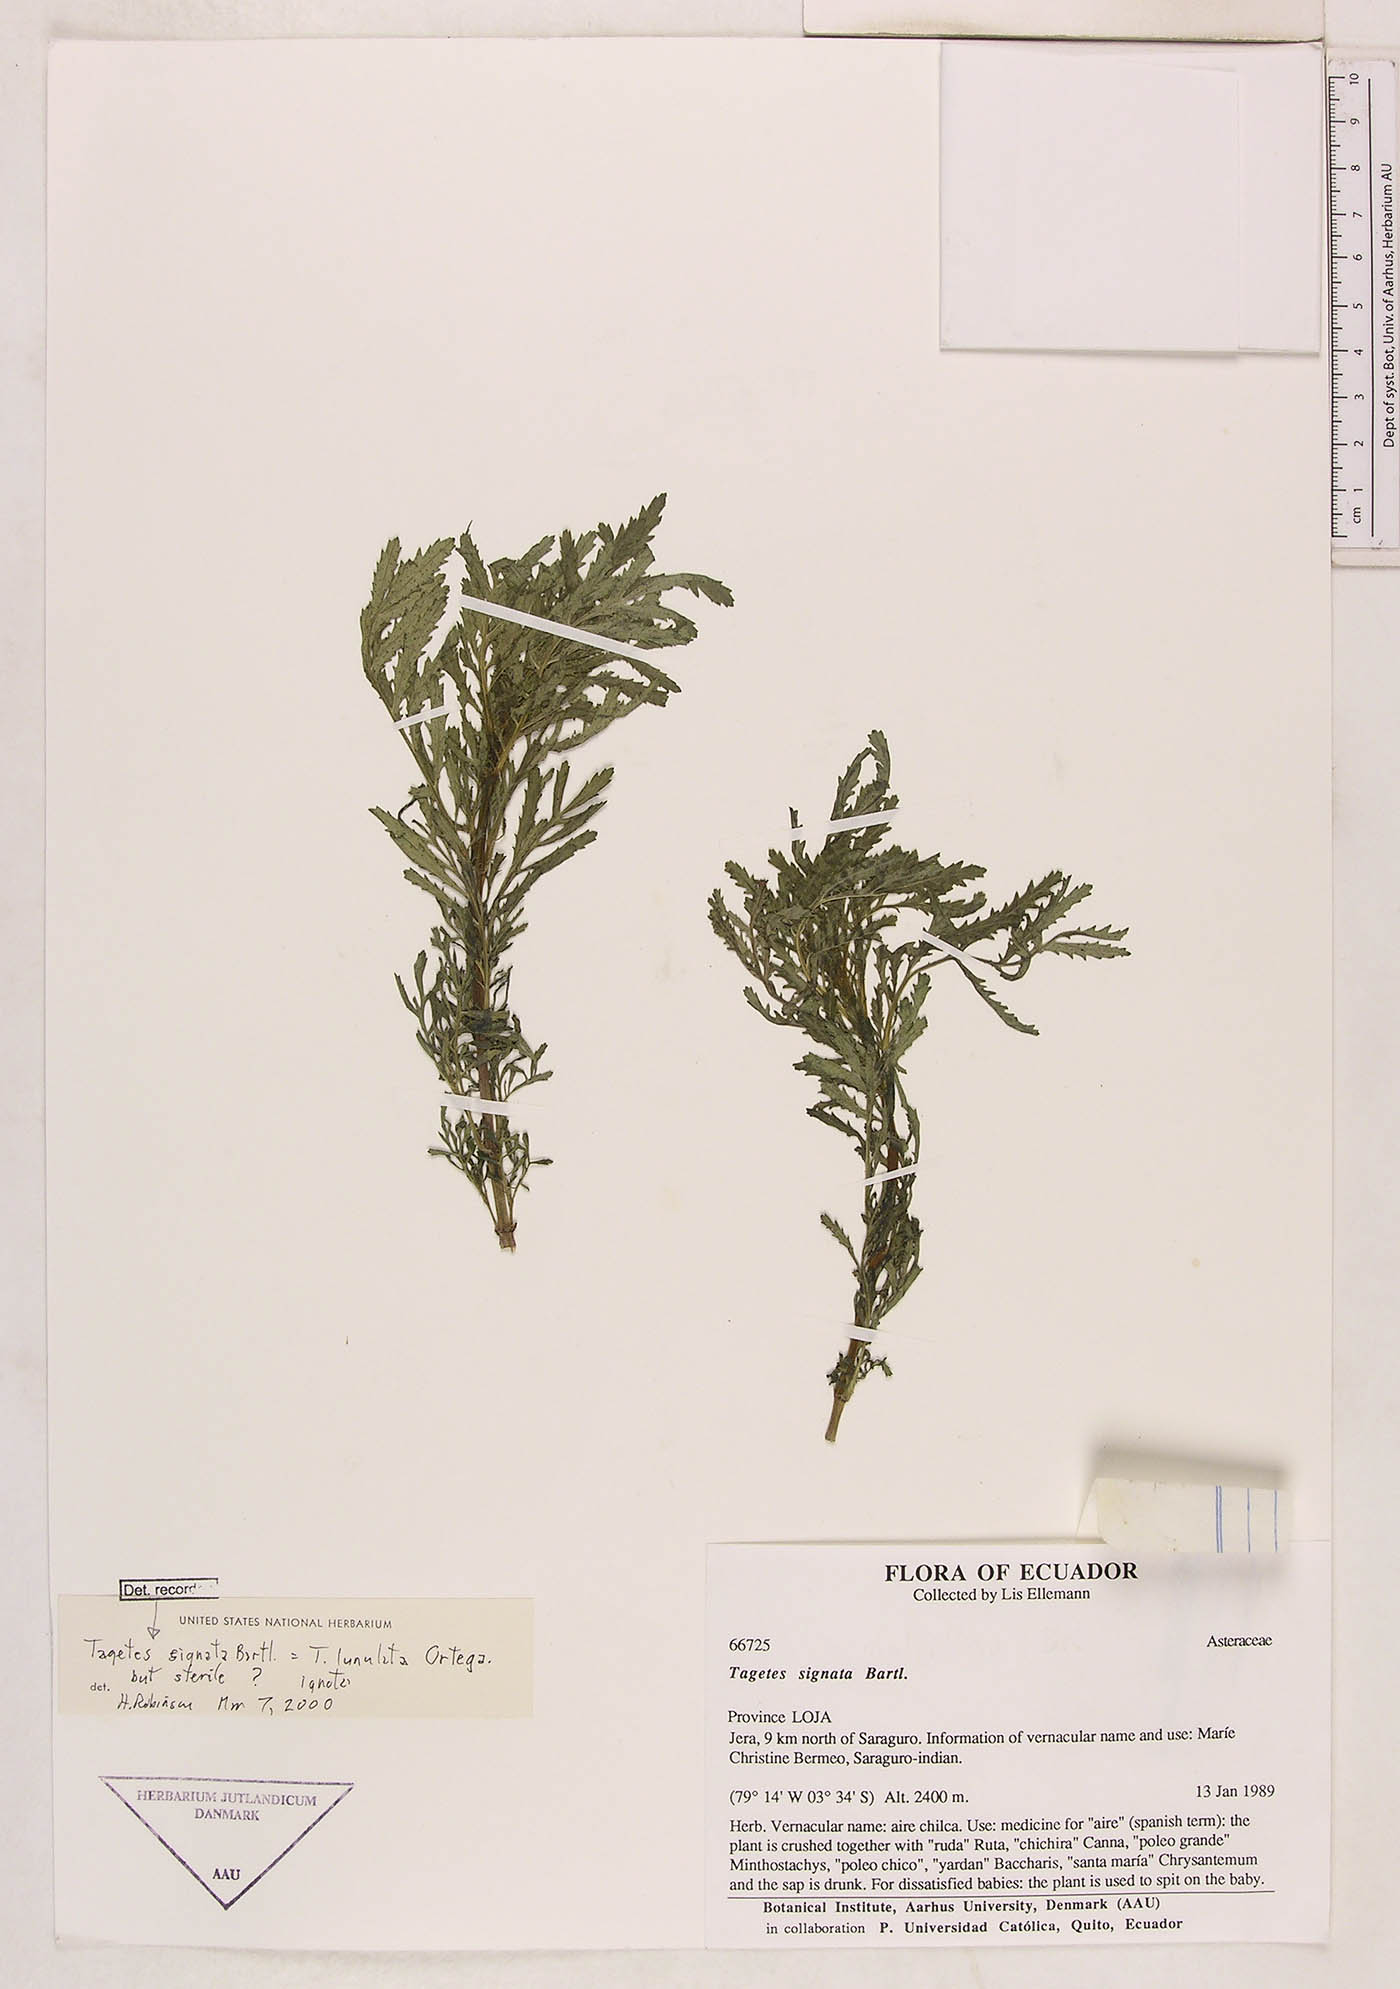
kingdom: Plantae
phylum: Tracheophyta
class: Magnoliopsida
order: Asterales
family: Asteraceae
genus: Tagetes
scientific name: Tagetes tenuifolia
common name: Signet marigold
